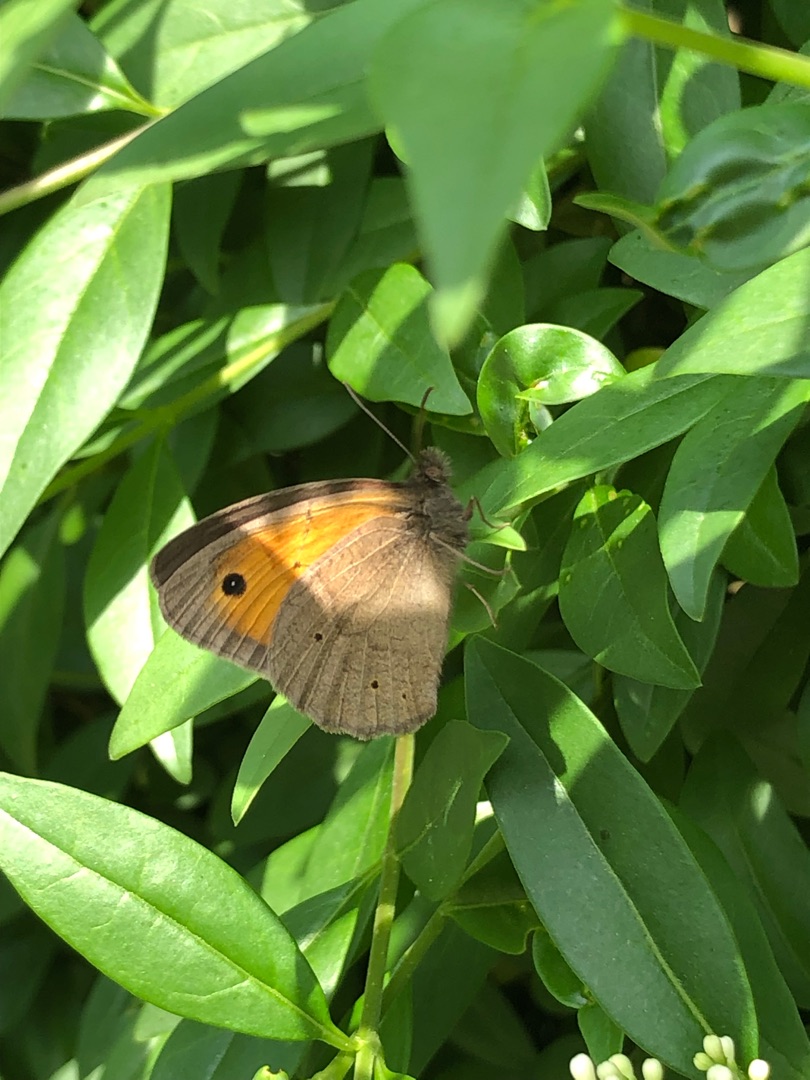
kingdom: Animalia
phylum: Arthropoda
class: Insecta
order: Lepidoptera
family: Nymphalidae
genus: Maniola
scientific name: Maniola jurtina
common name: Græsrandøje
